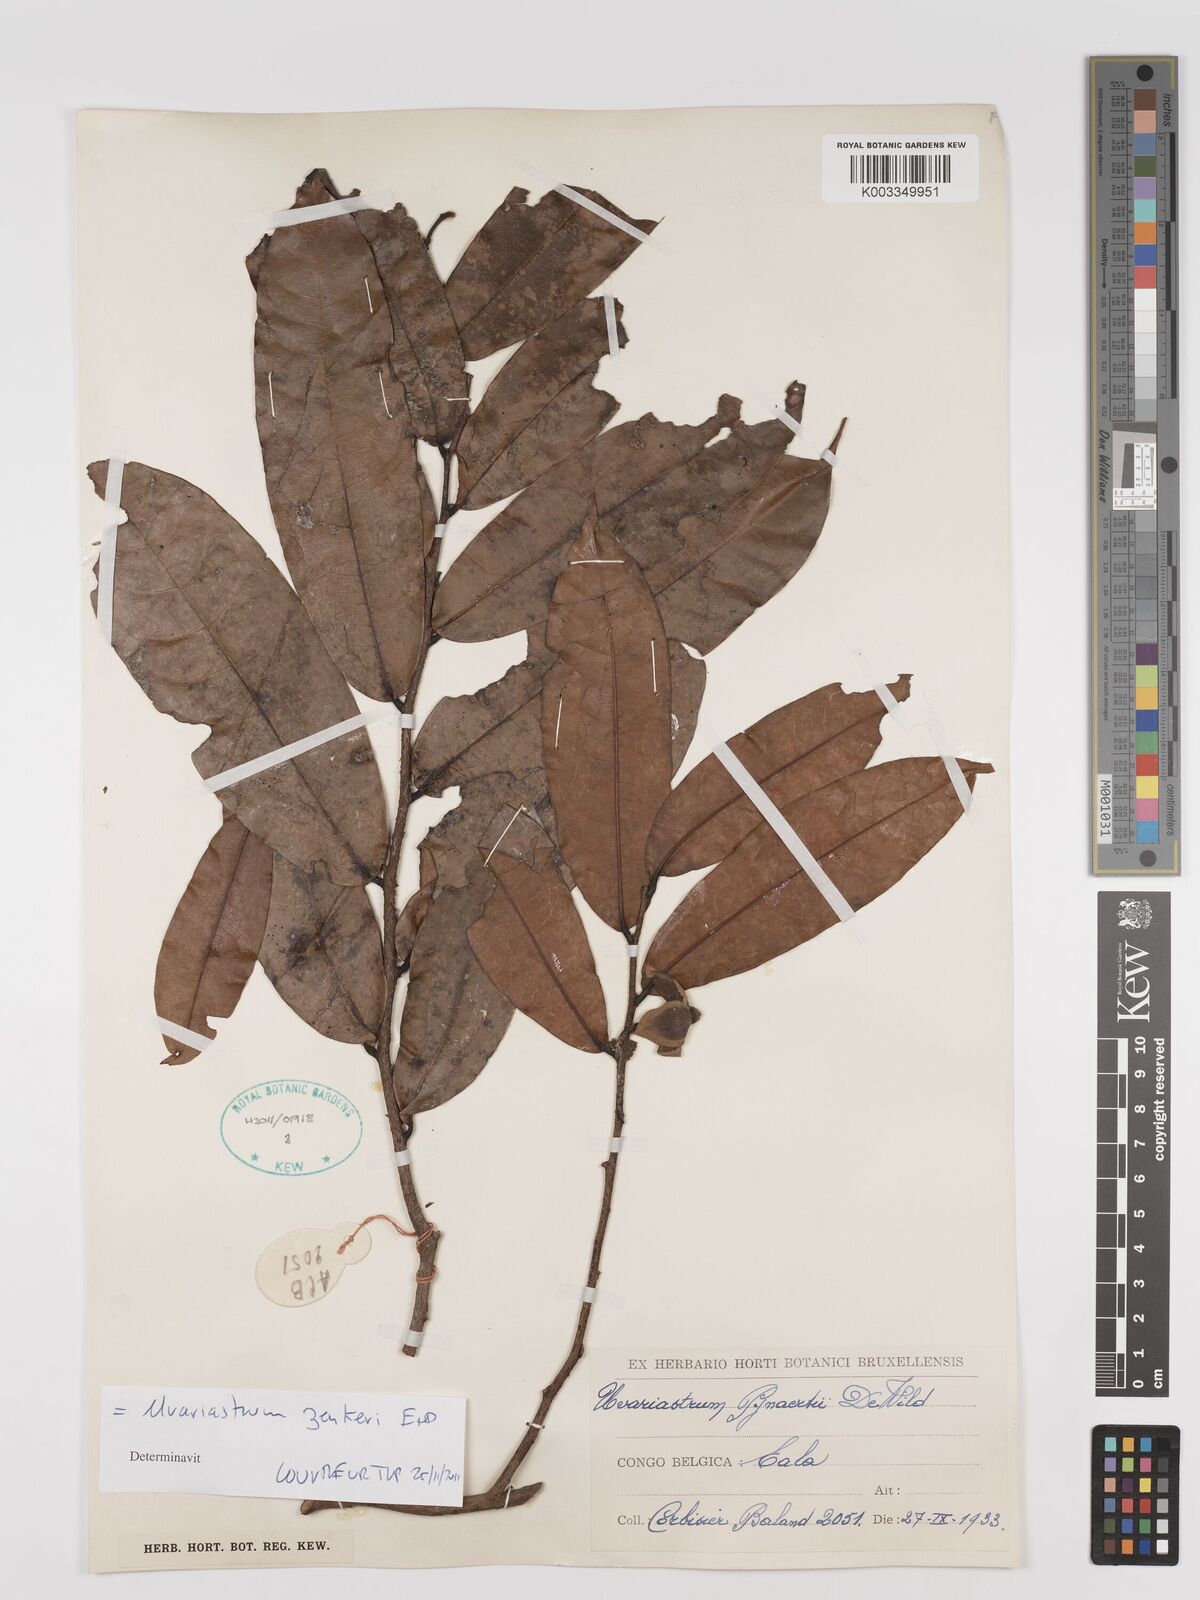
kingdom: Plantae
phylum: Tracheophyta
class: Magnoliopsida
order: Magnoliales
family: Annonaceae
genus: Uvariastrum
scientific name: Uvariastrum zenkeri
